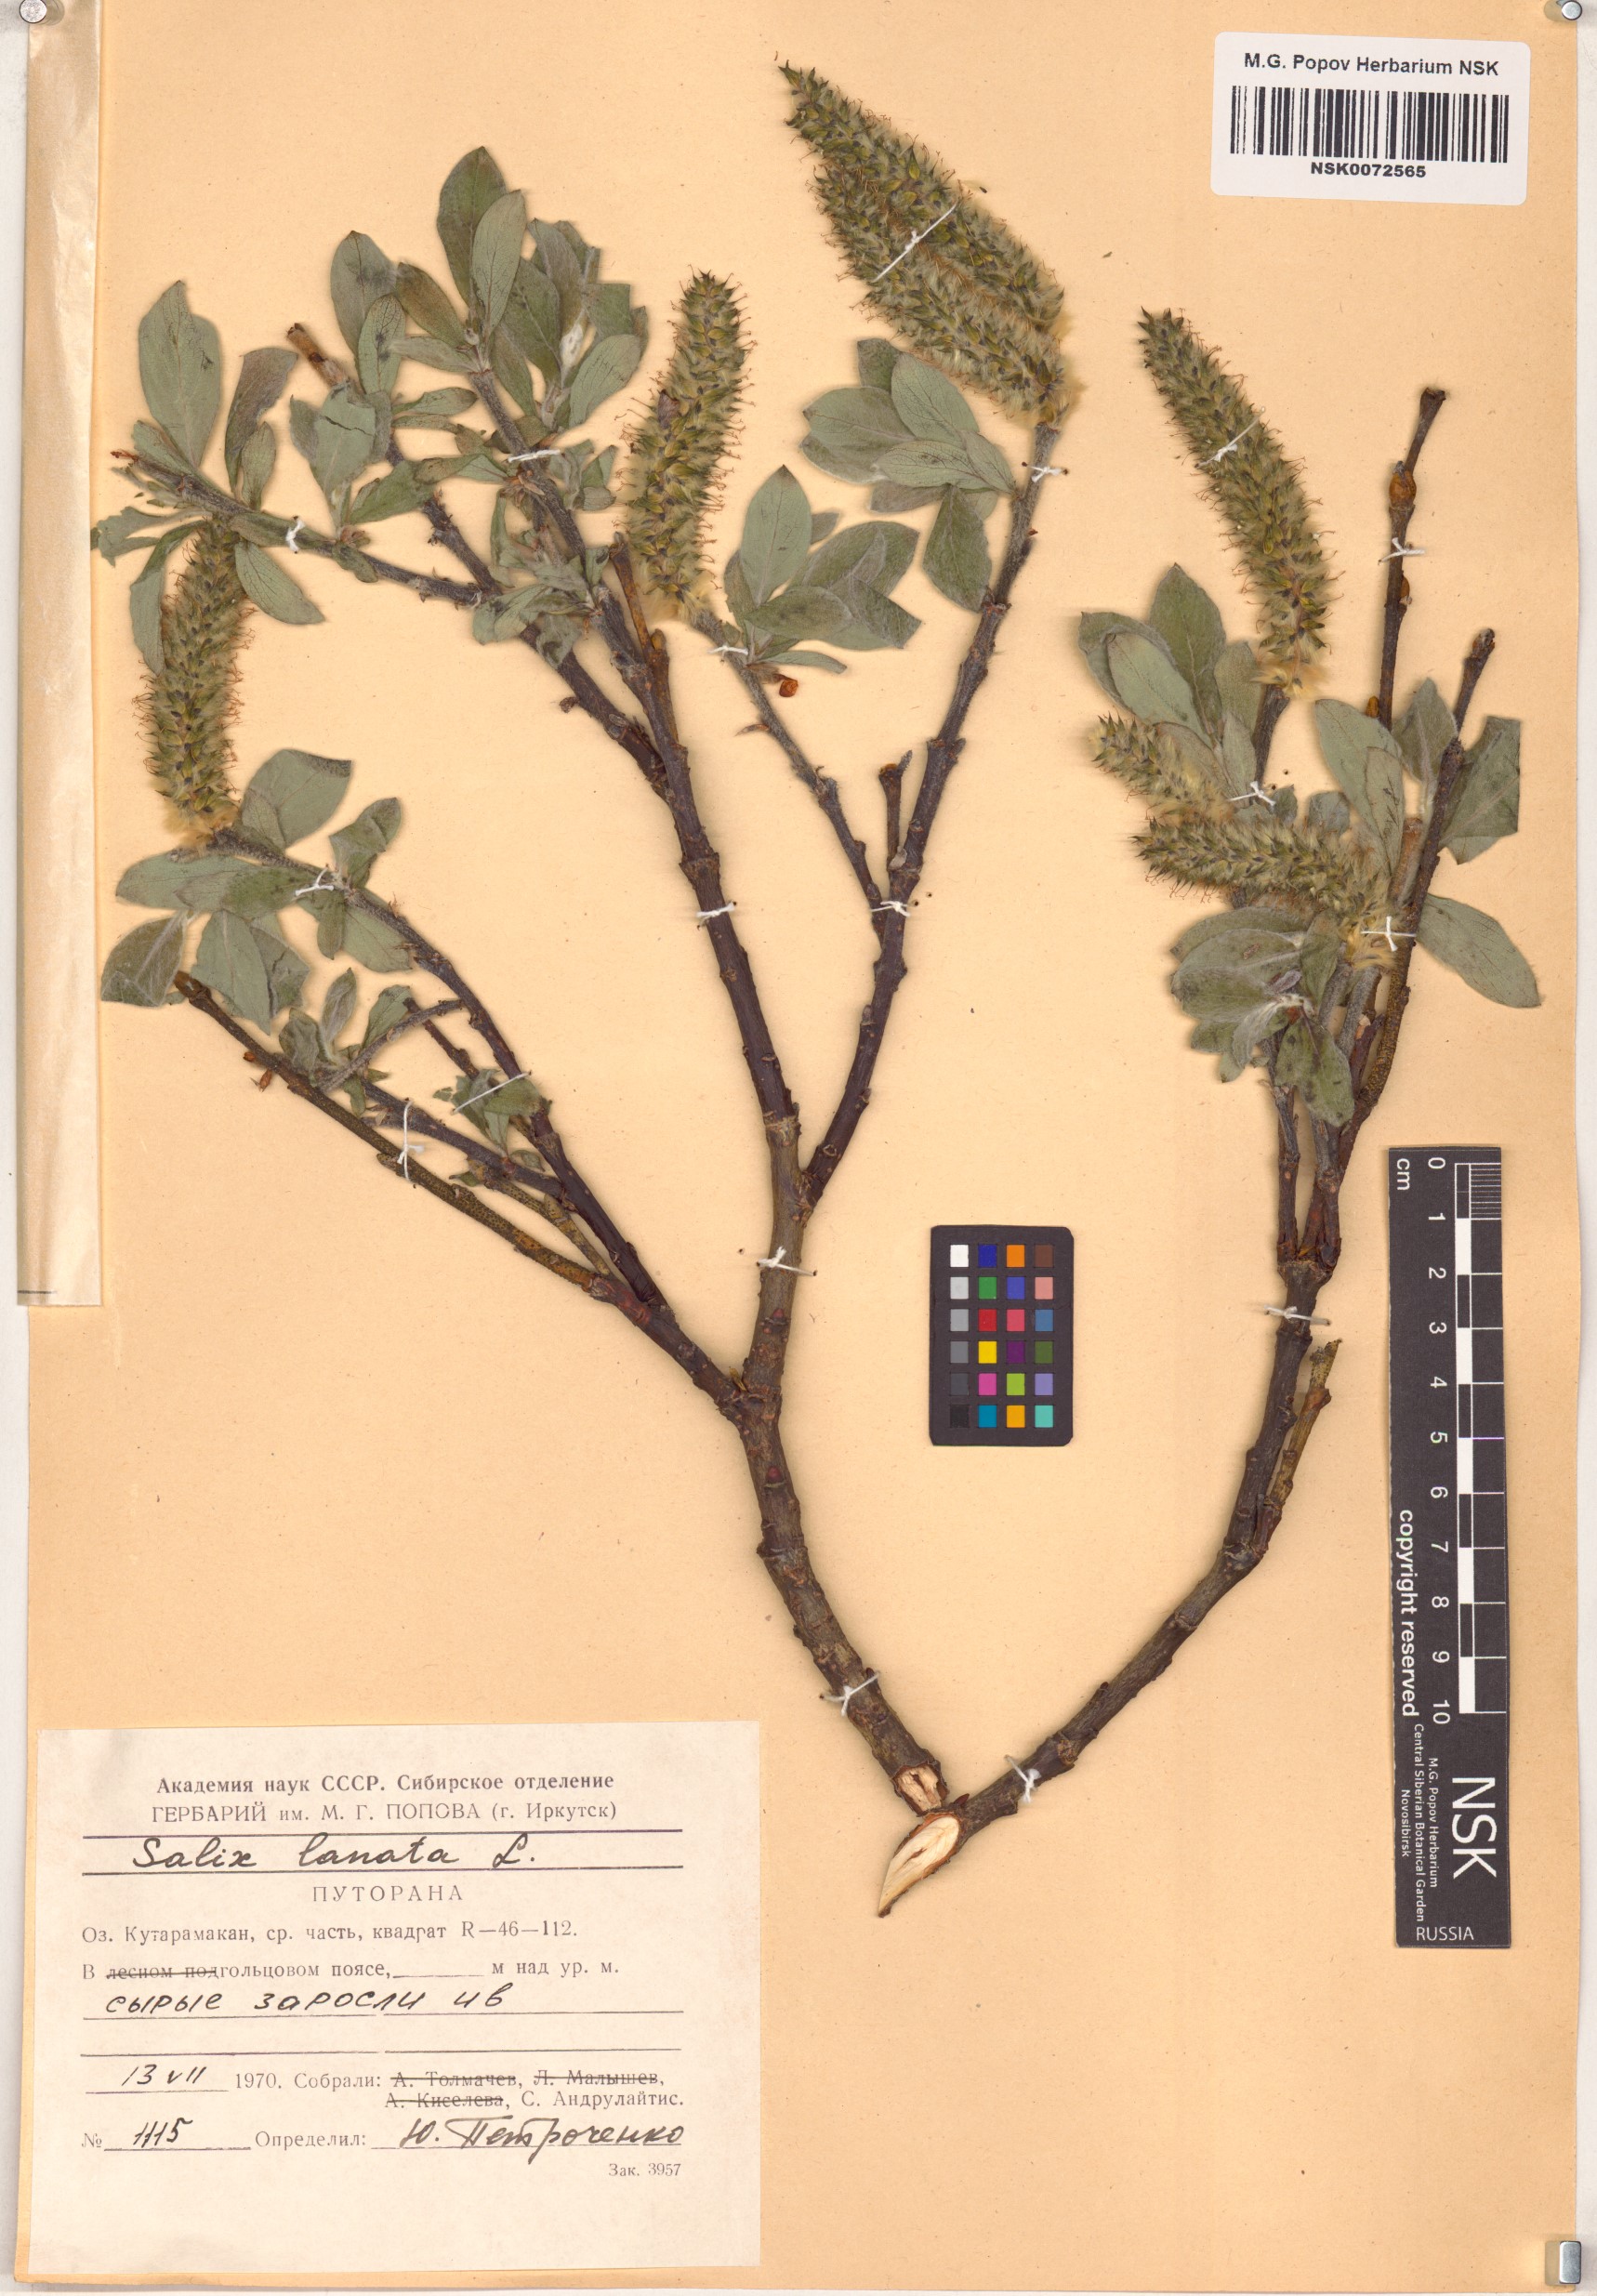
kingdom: Plantae
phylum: Tracheophyta
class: Magnoliopsida
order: Malpighiales
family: Salicaceae
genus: Salix
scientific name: Salix lanata
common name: Woolly willow
